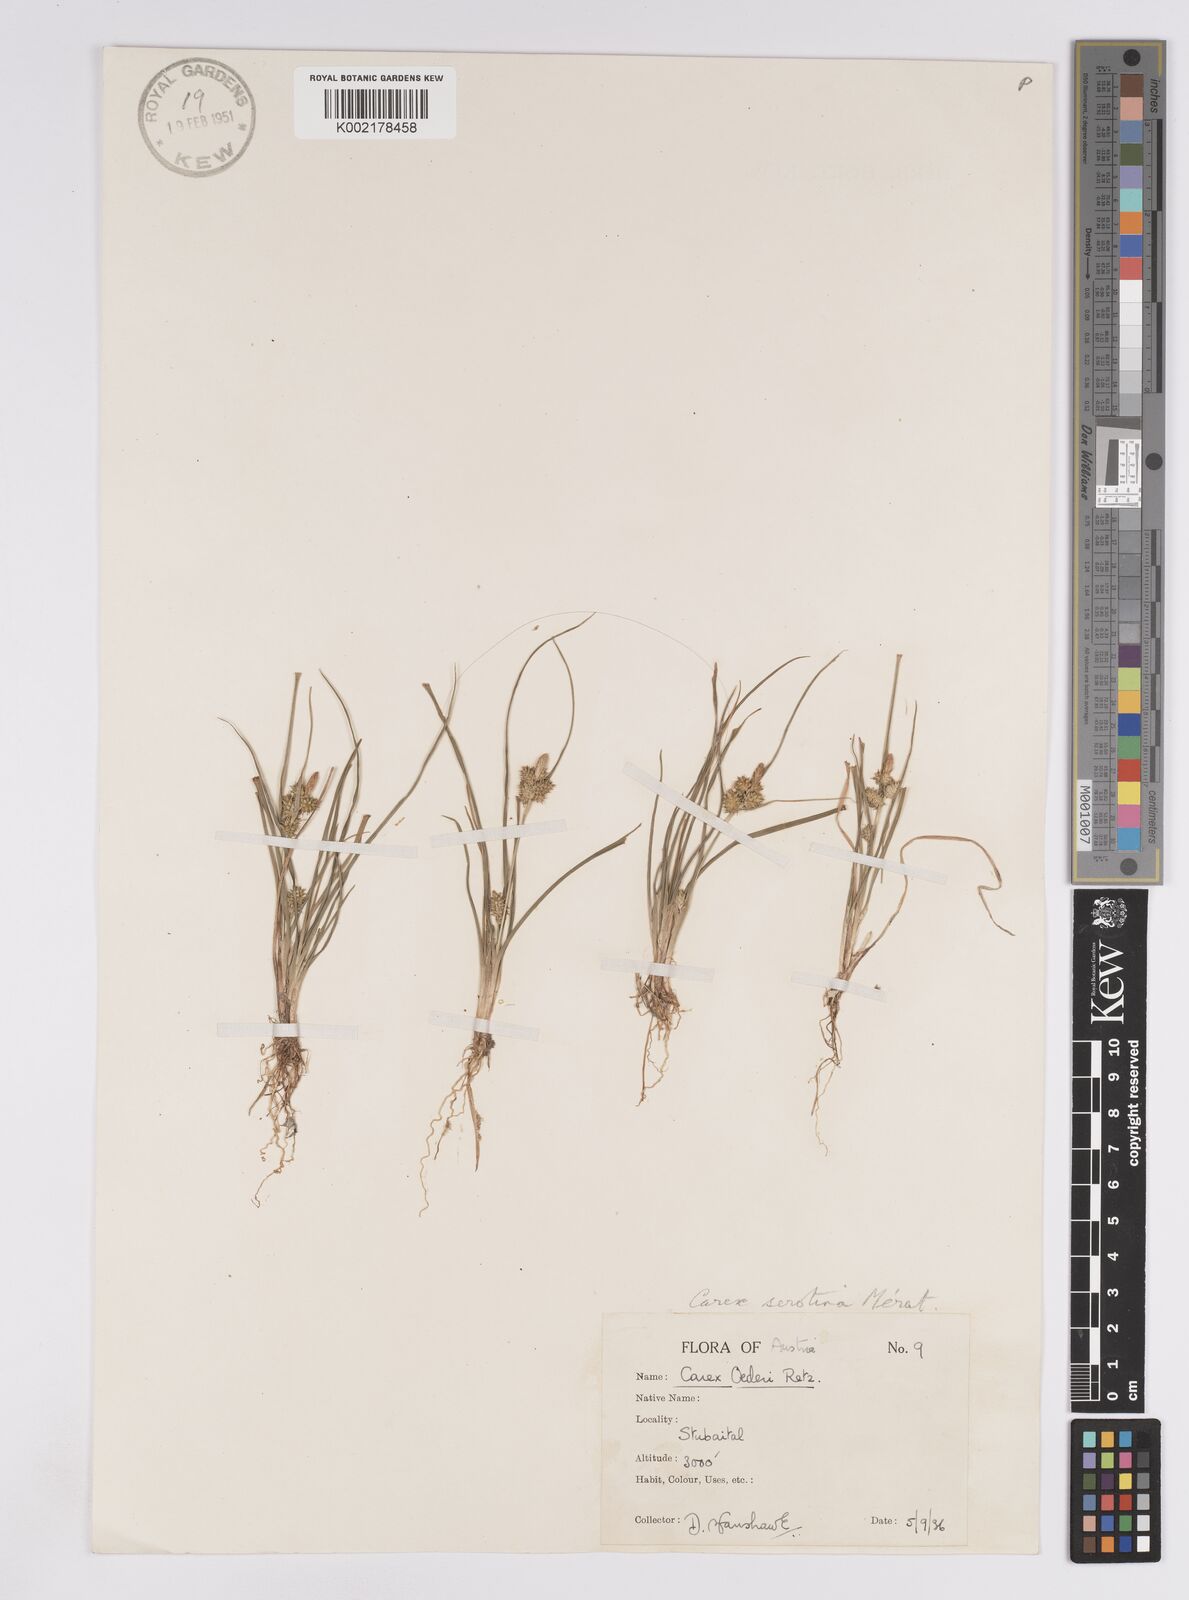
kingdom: Plantae
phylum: Tracheophyta
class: Liliopsida
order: Poales
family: Cyperaceae
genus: Carex
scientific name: Carex demissa
